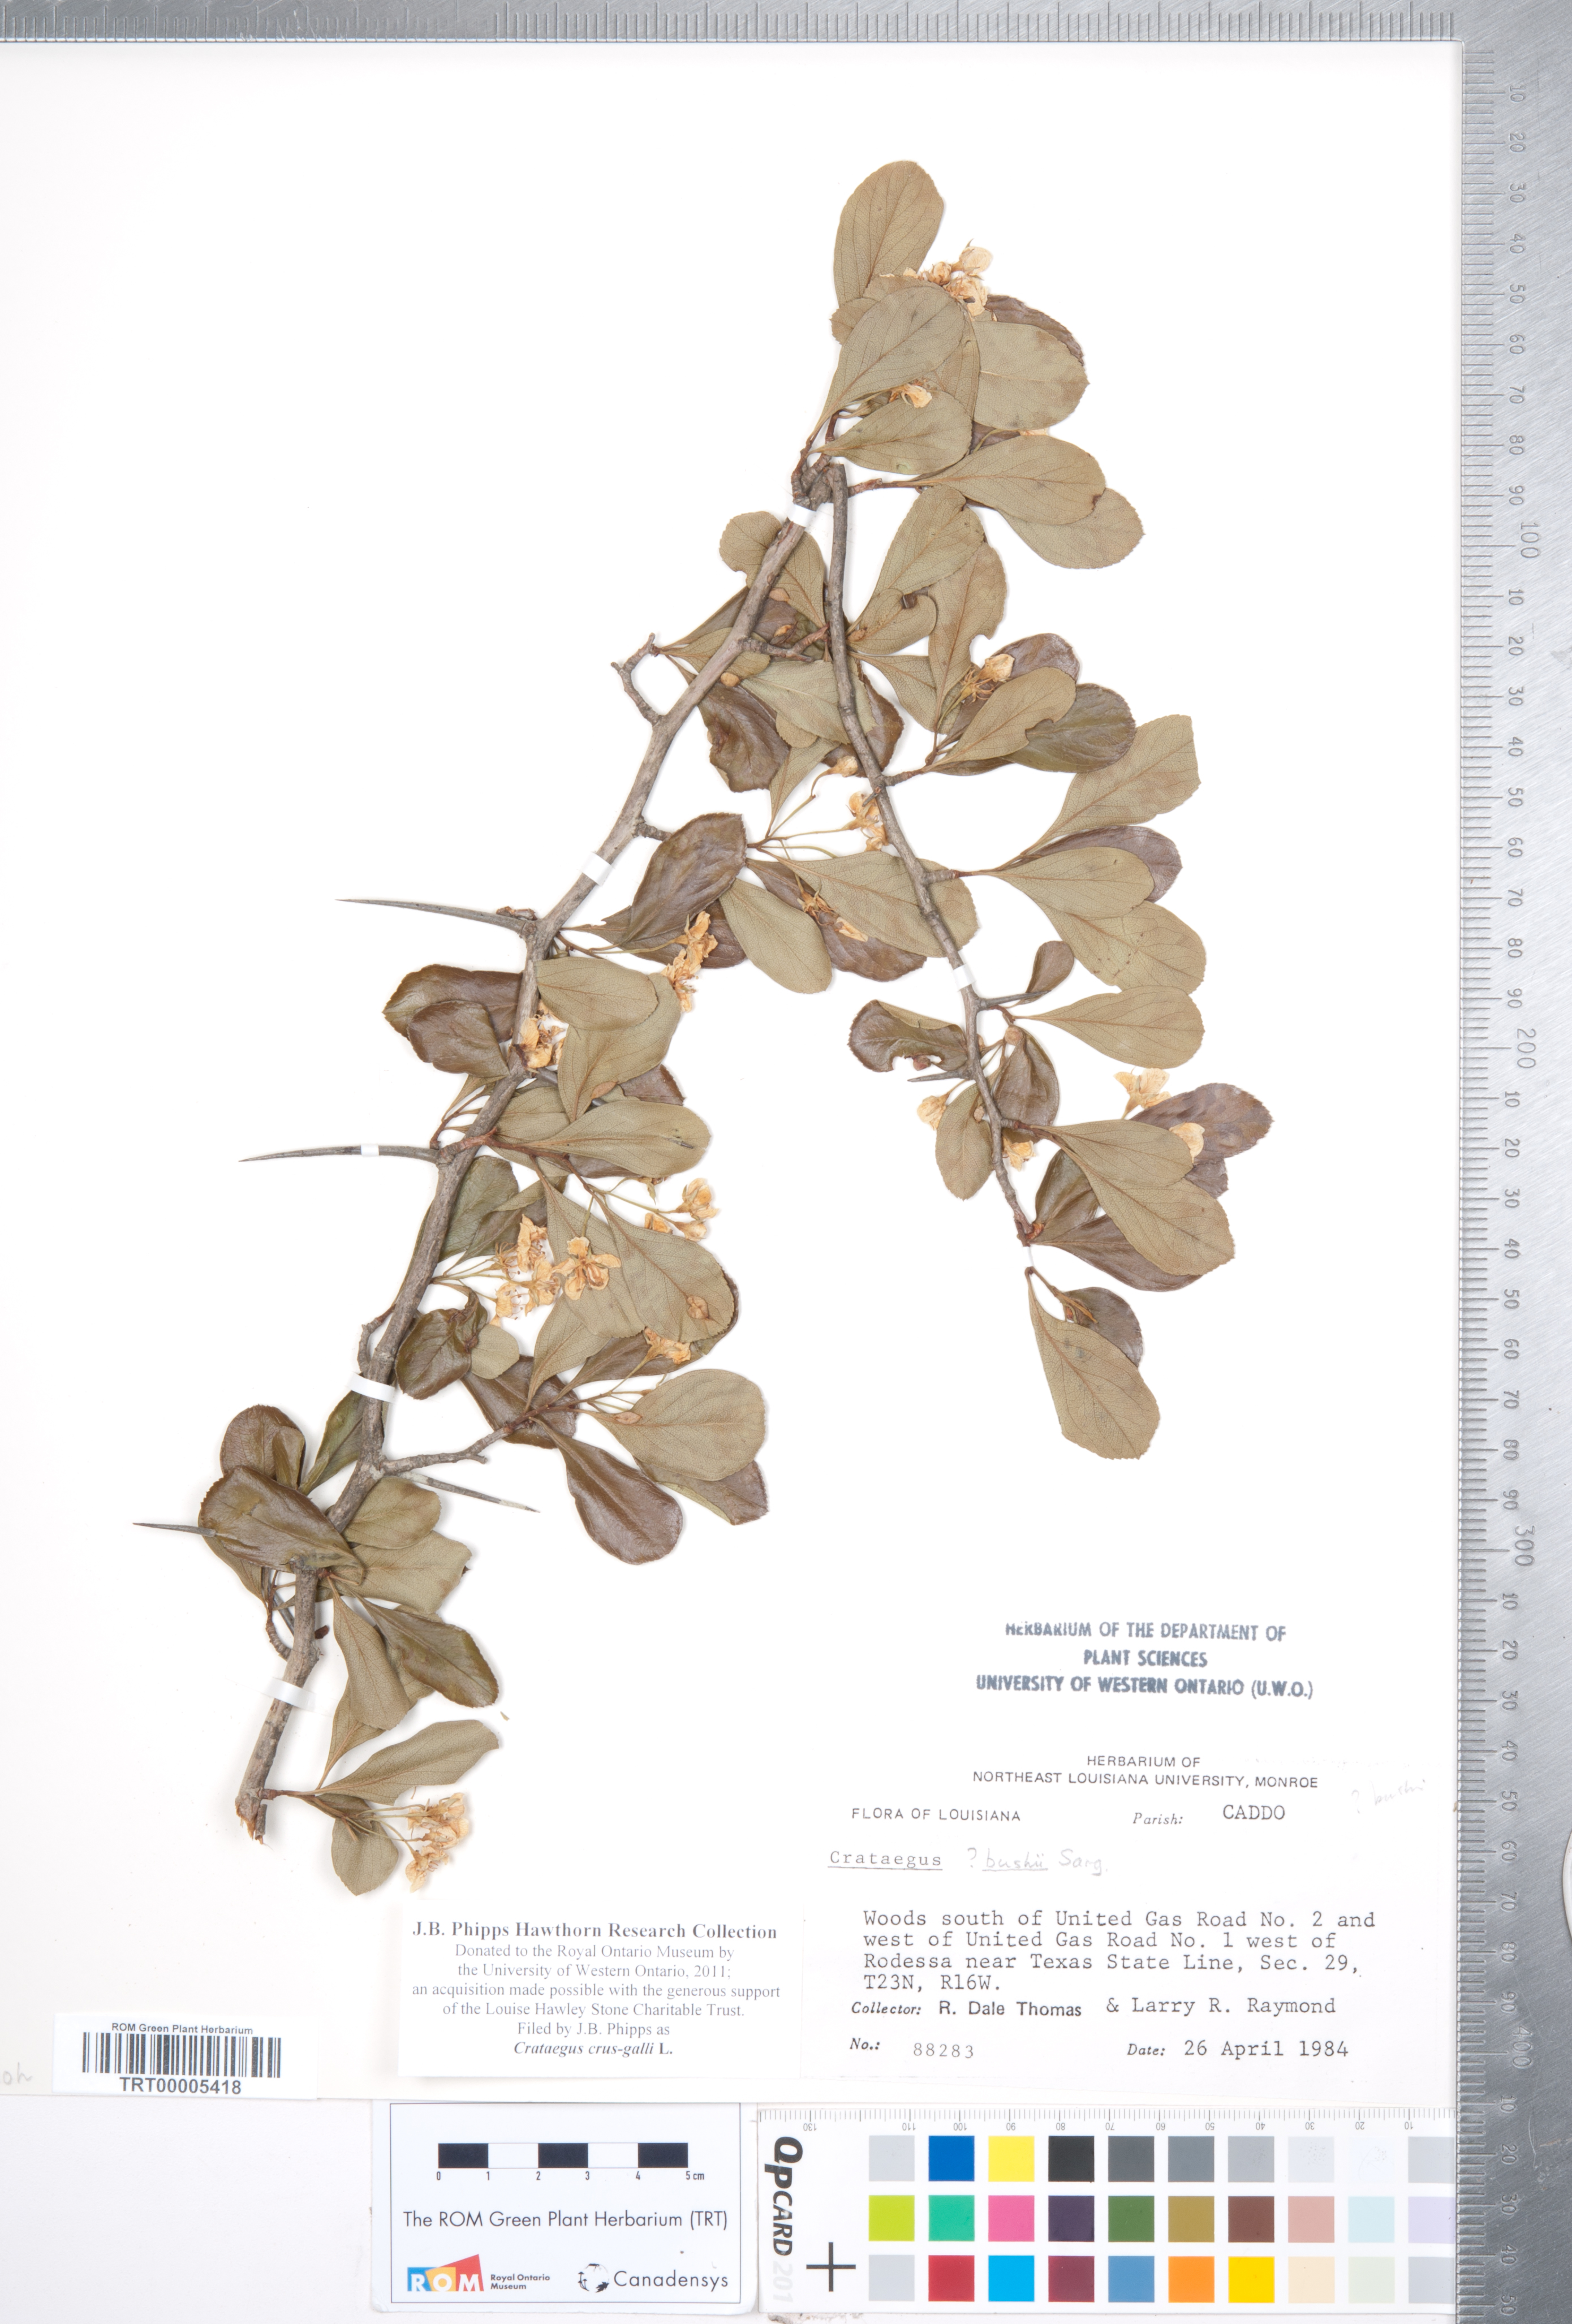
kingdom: Plantae
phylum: Tracheophyta
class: Magnoliopsida
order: Rosales
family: Rosaceae
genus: Crataegus
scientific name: Crataegus crus-galli
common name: Cockspurthorn
